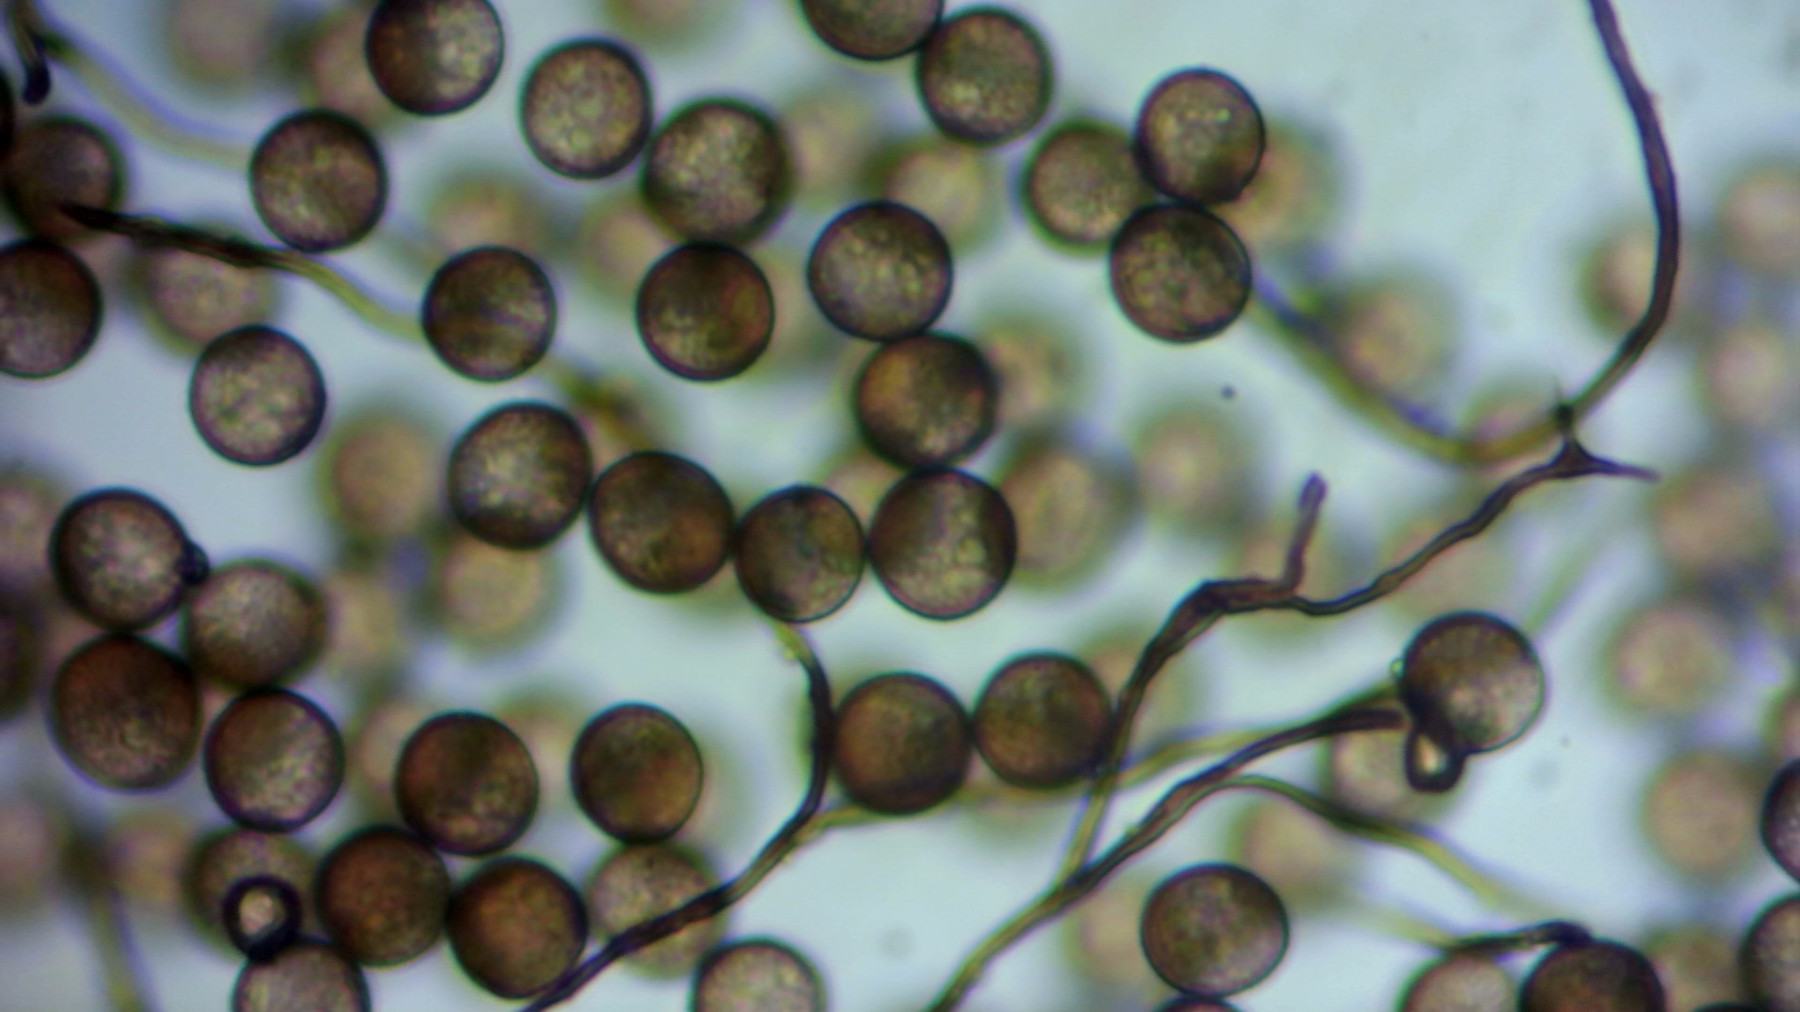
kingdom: Protozoa
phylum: Mycetozoa
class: Myxomycetes
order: Stemonitidales
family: Stemonitidaceae
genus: Enerthenema
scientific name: Enerthenema papillatum
